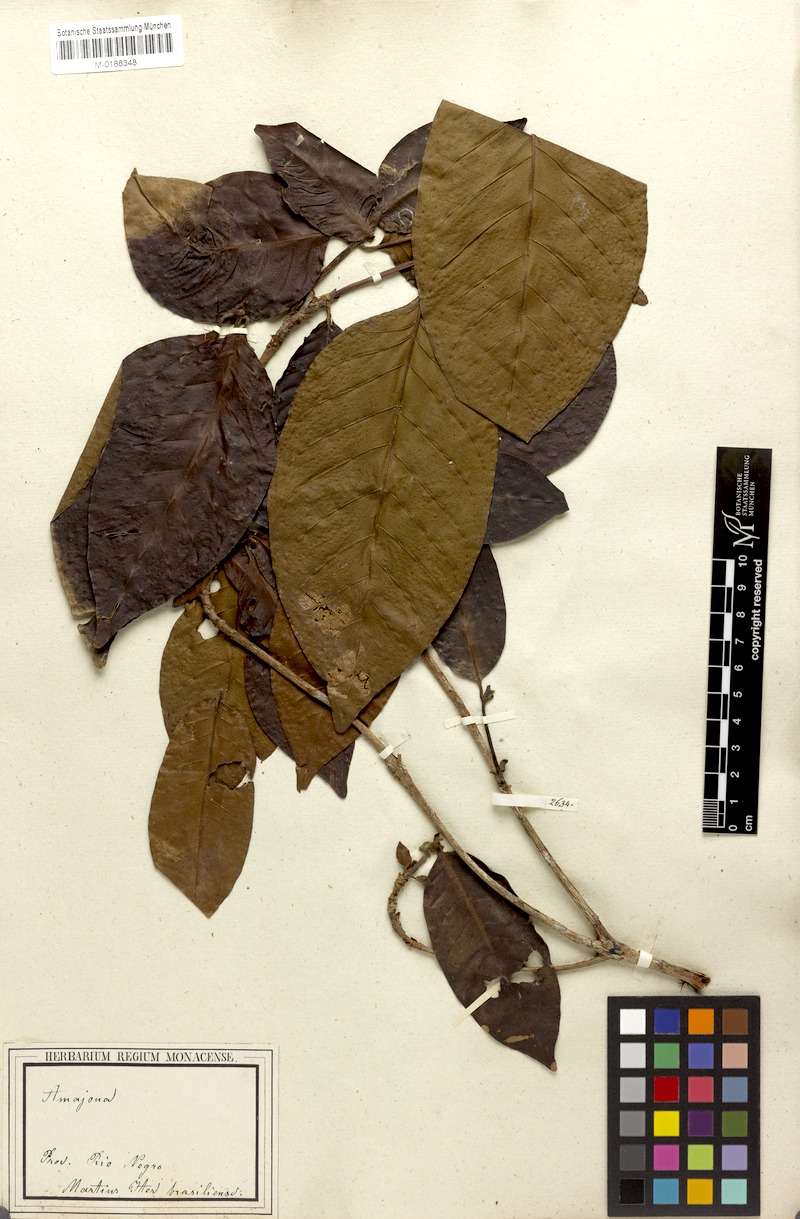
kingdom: Plantae
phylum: Tracheophyta
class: Magnoliopsida
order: Gentianales
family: Rubiaceae
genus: Alibertia
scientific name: Alibertia latifolia
